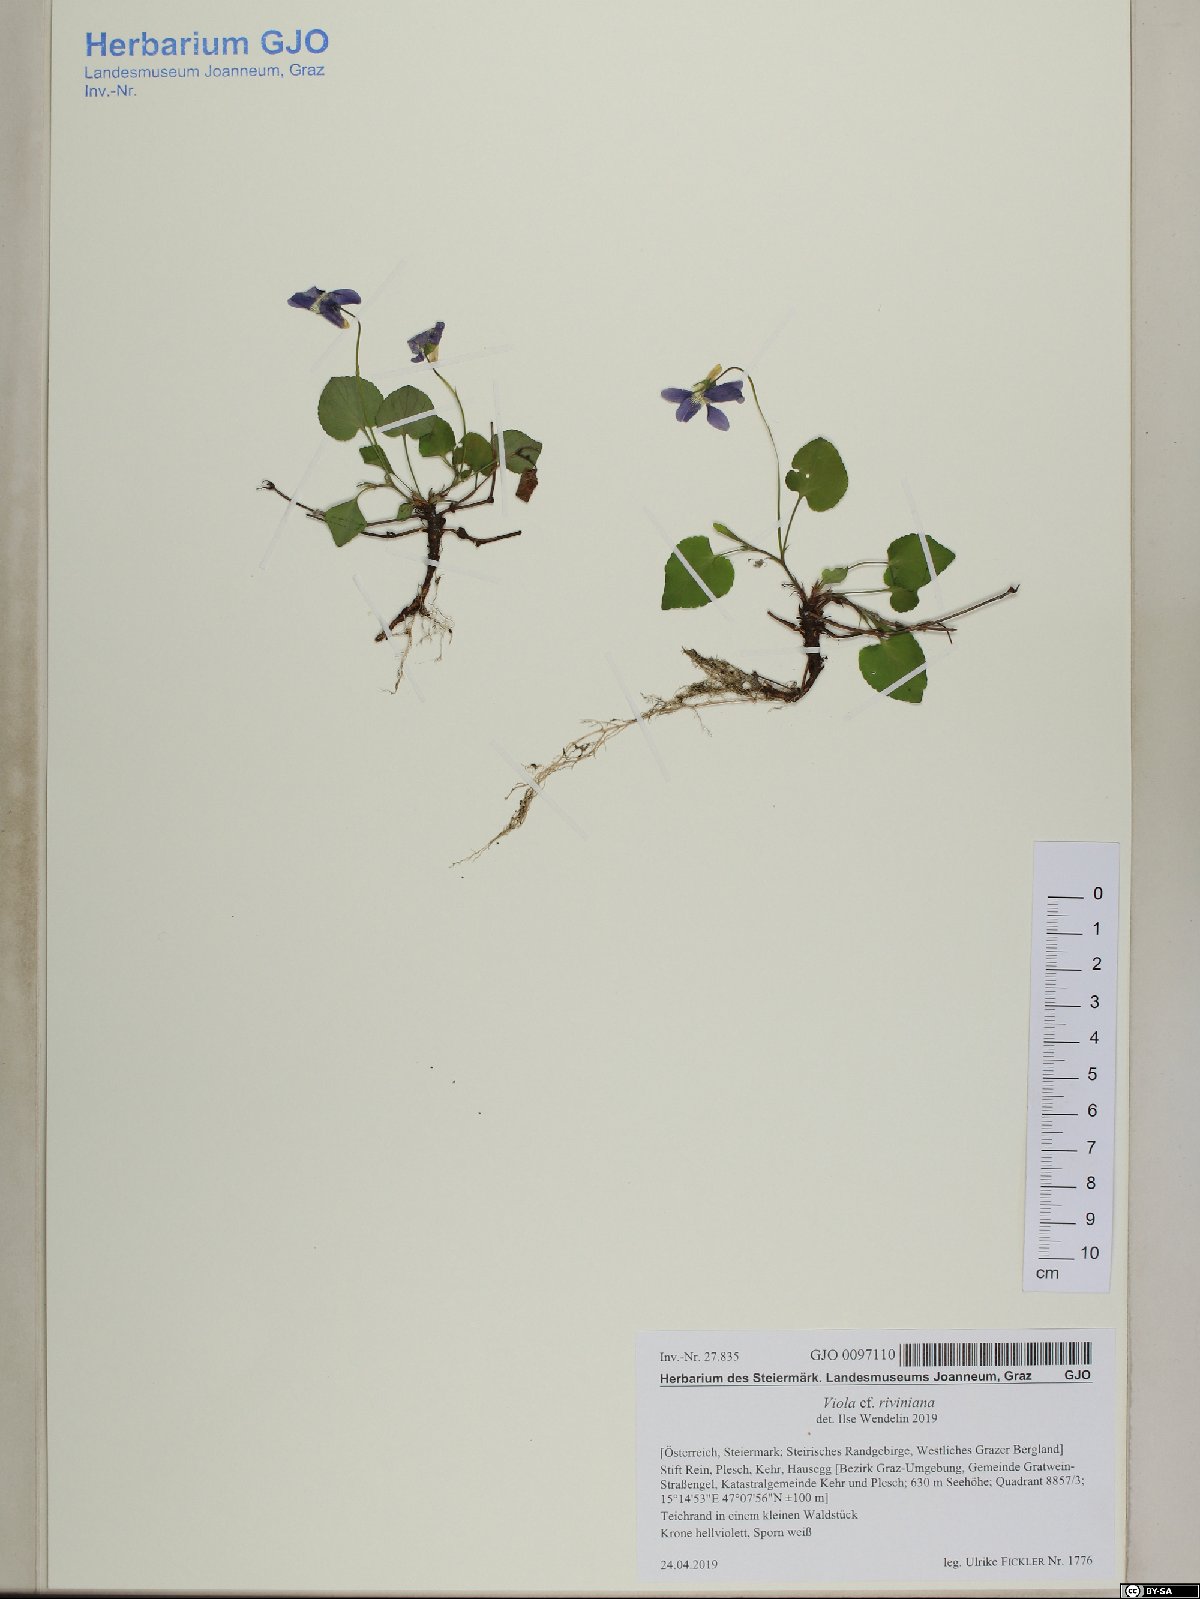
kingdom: Plantae
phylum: Tracheophyta
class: Magnoliopsida
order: Malpighiales
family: Violaceae
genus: Viola
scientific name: Viola riviniana
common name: Common dog-violet
